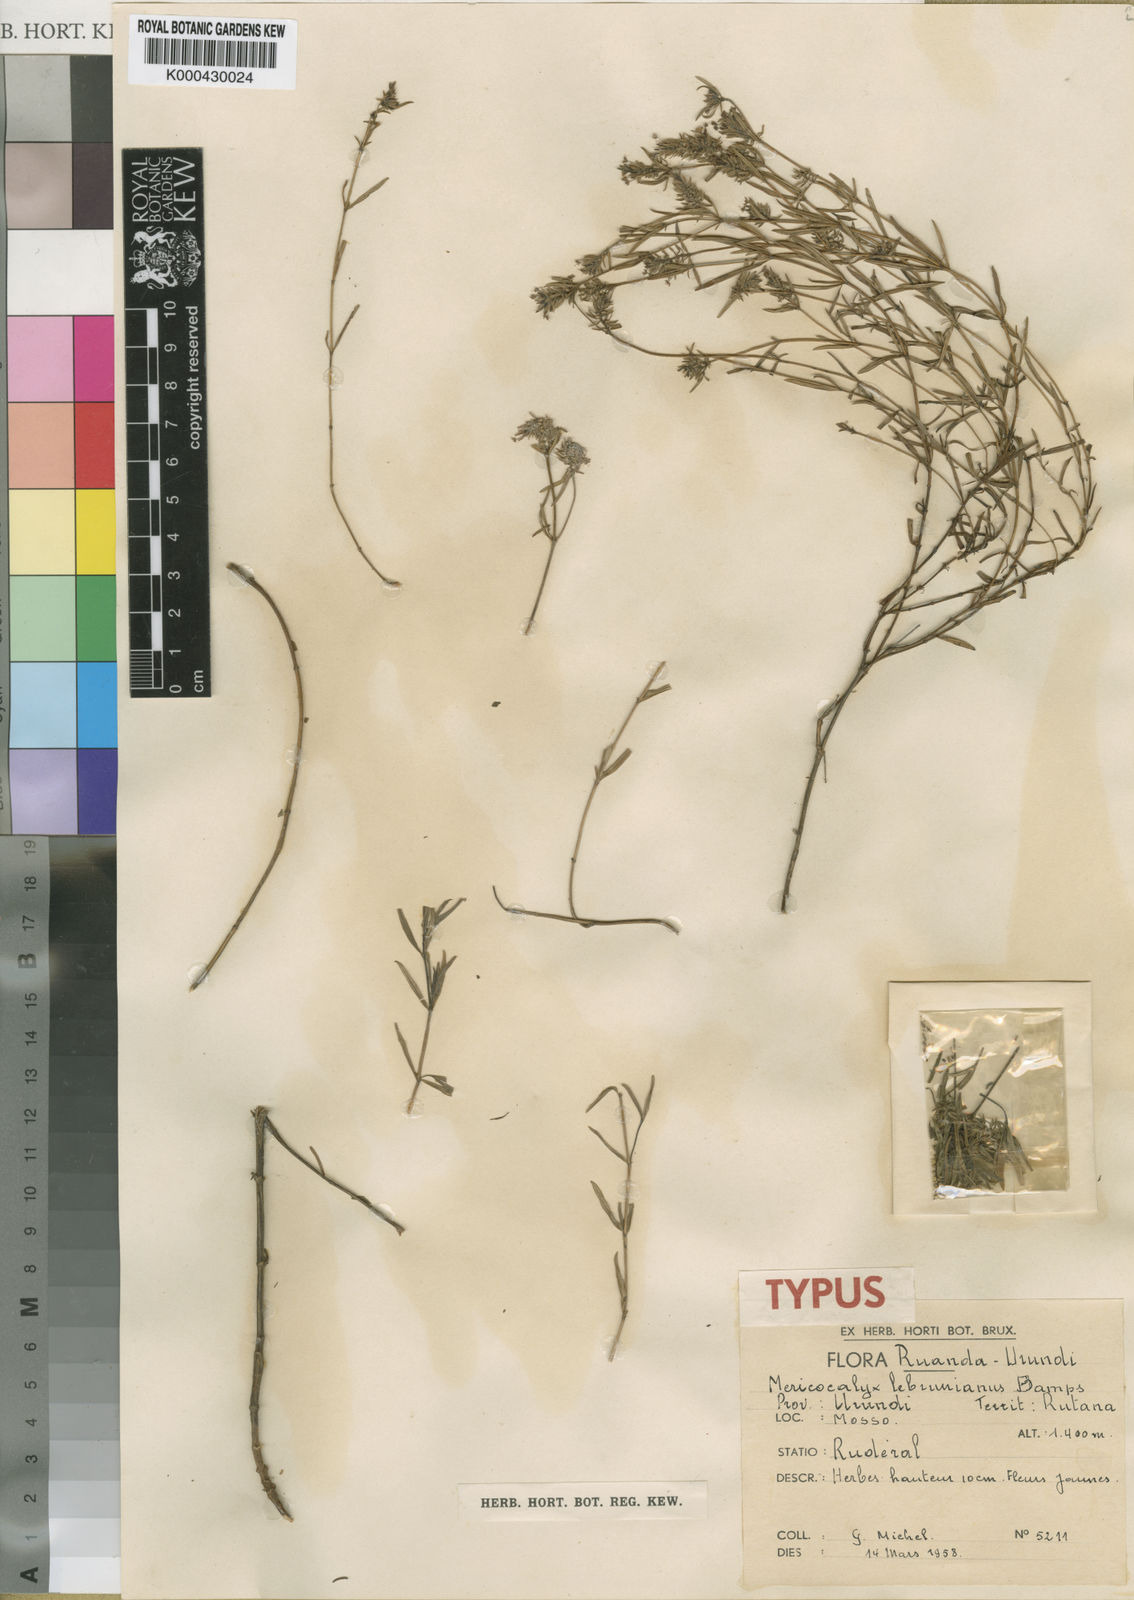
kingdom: Plantae
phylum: Tracheophyta
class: Magnoliopsida
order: Gentianales
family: Rubiaceae
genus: Otiophora
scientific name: Otiophora lebruniana
